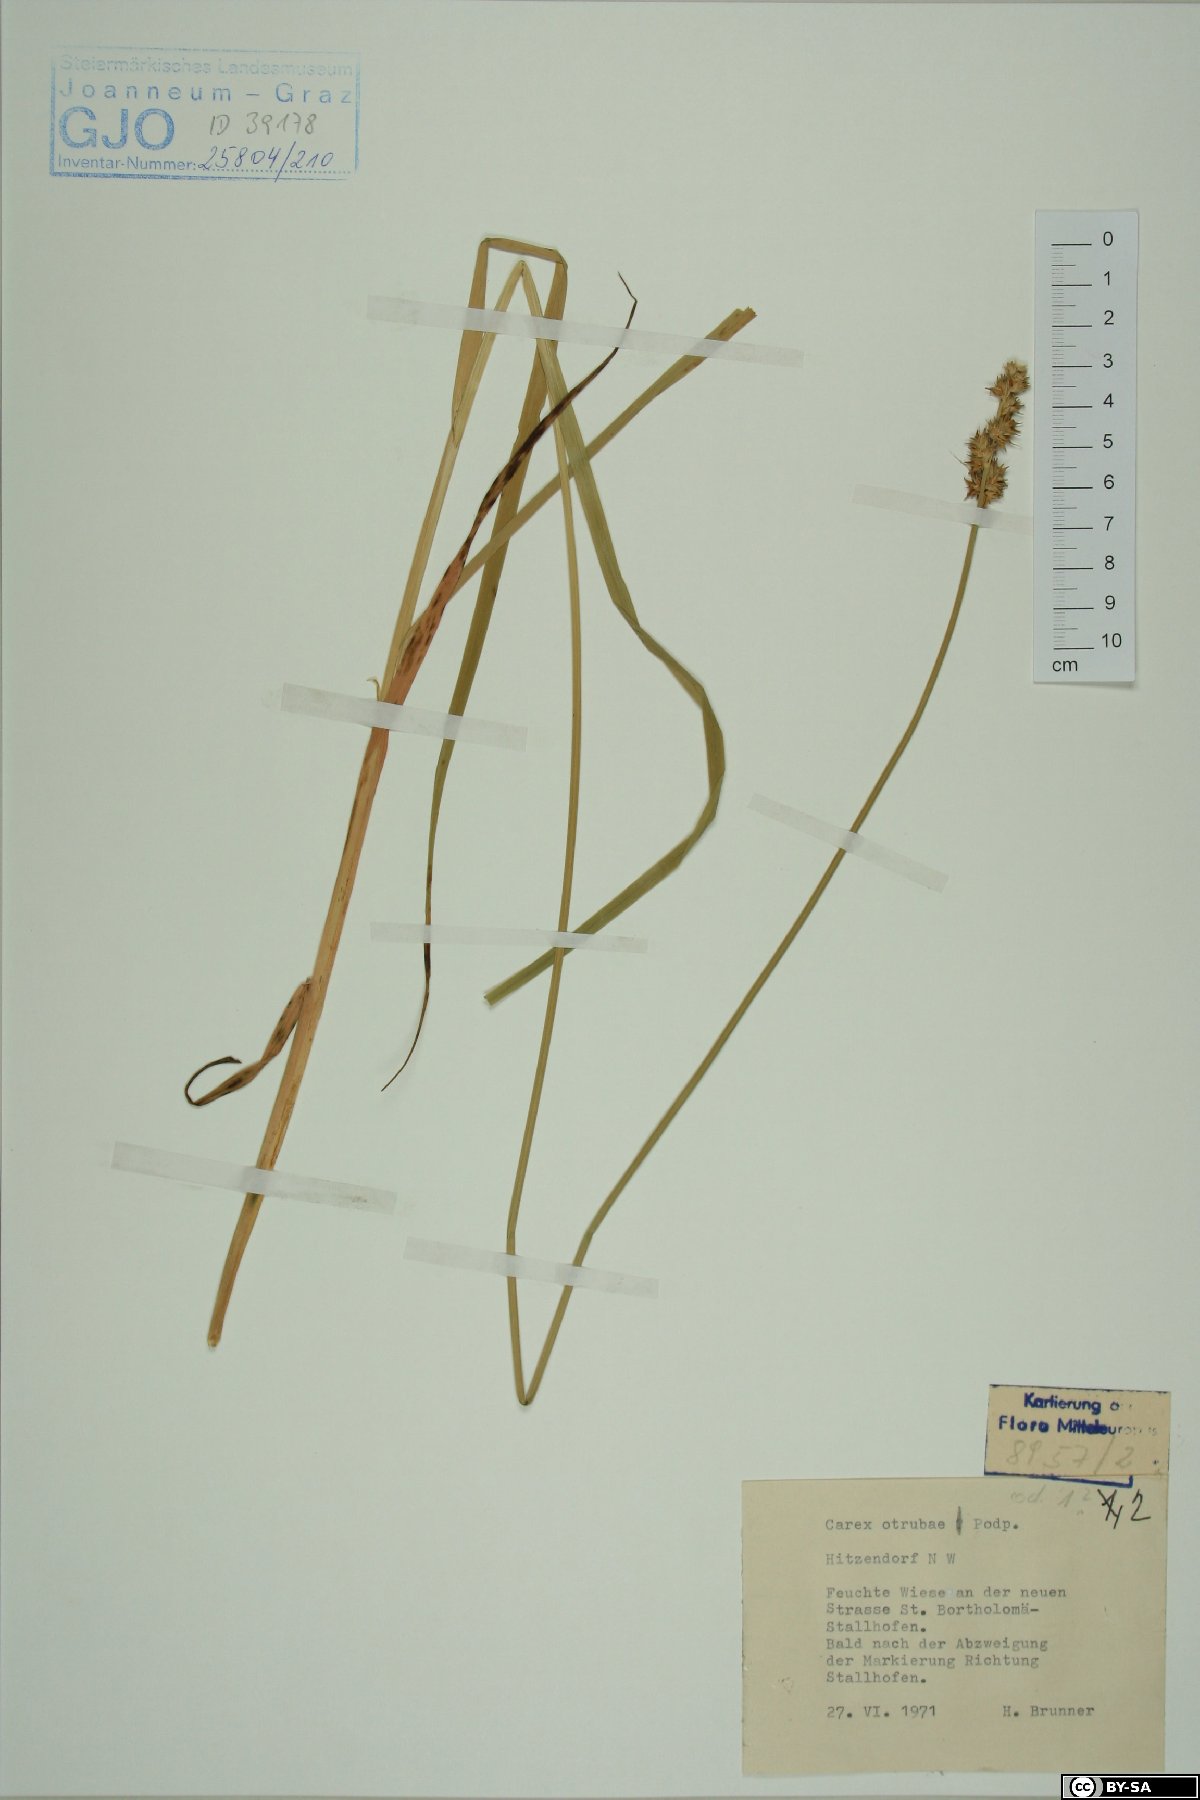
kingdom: Plantae
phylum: Tracheophyta
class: Liliopsida
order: Poales
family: Cyperaceae
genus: Carex
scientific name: Carex otrubae
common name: False fox-sedge
